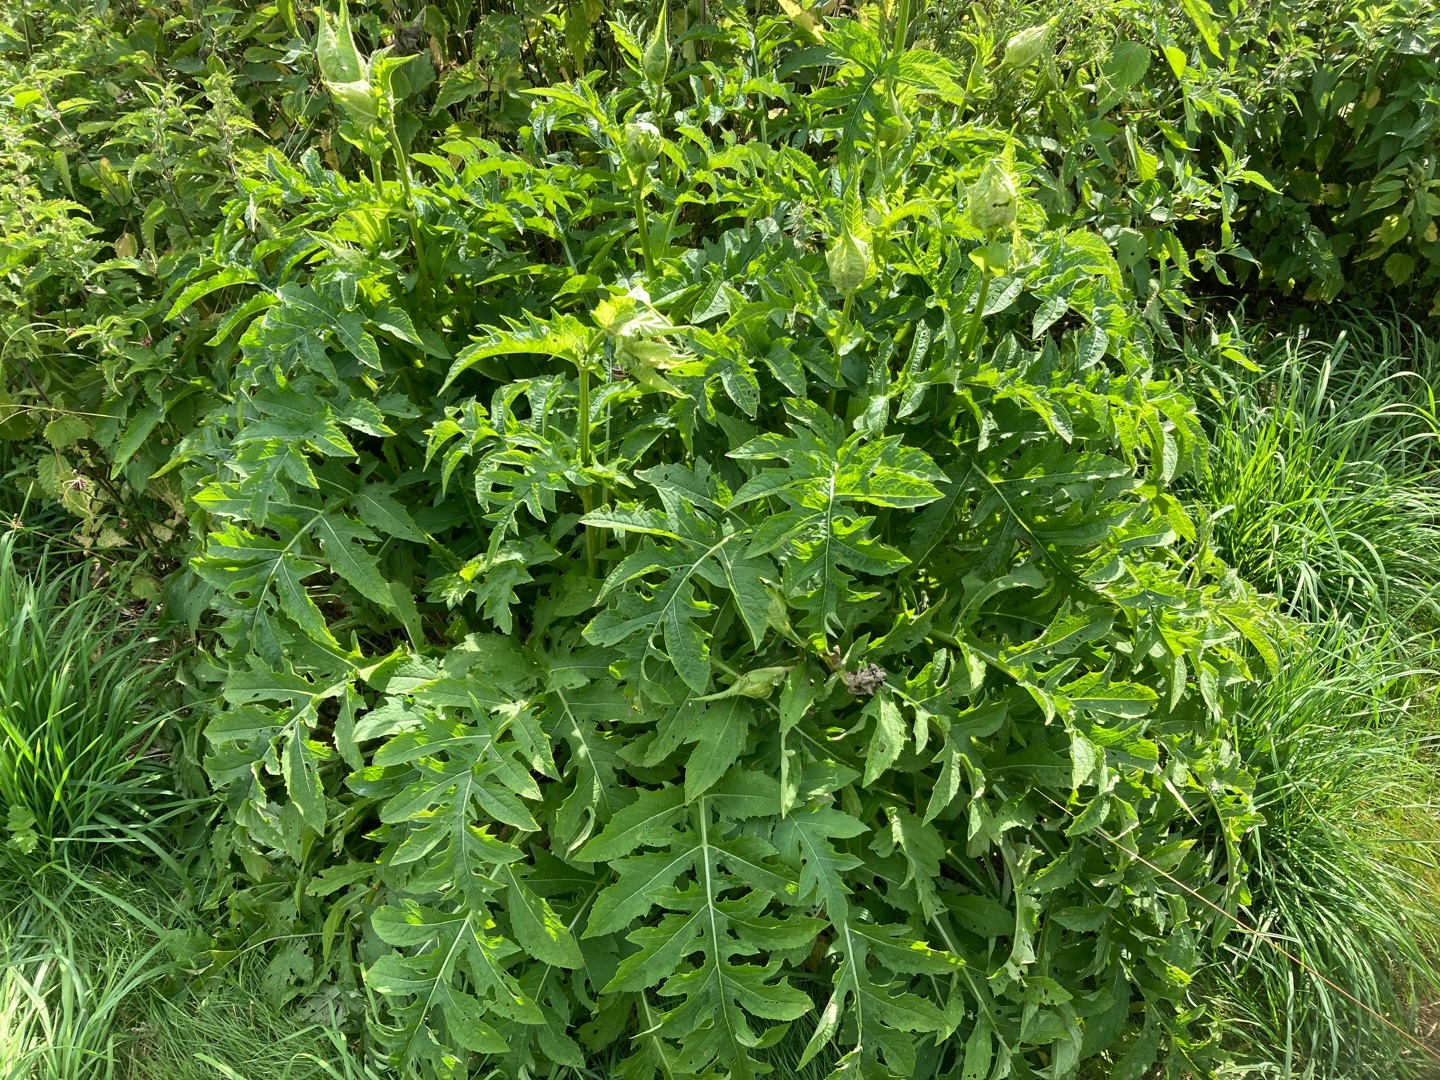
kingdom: Plantae
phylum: Tracheophyta
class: Magnoliopsida
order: Asterales
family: Asteraceae
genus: Cirsium
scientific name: Cirsium oleraceum
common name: Kål-tidsel
